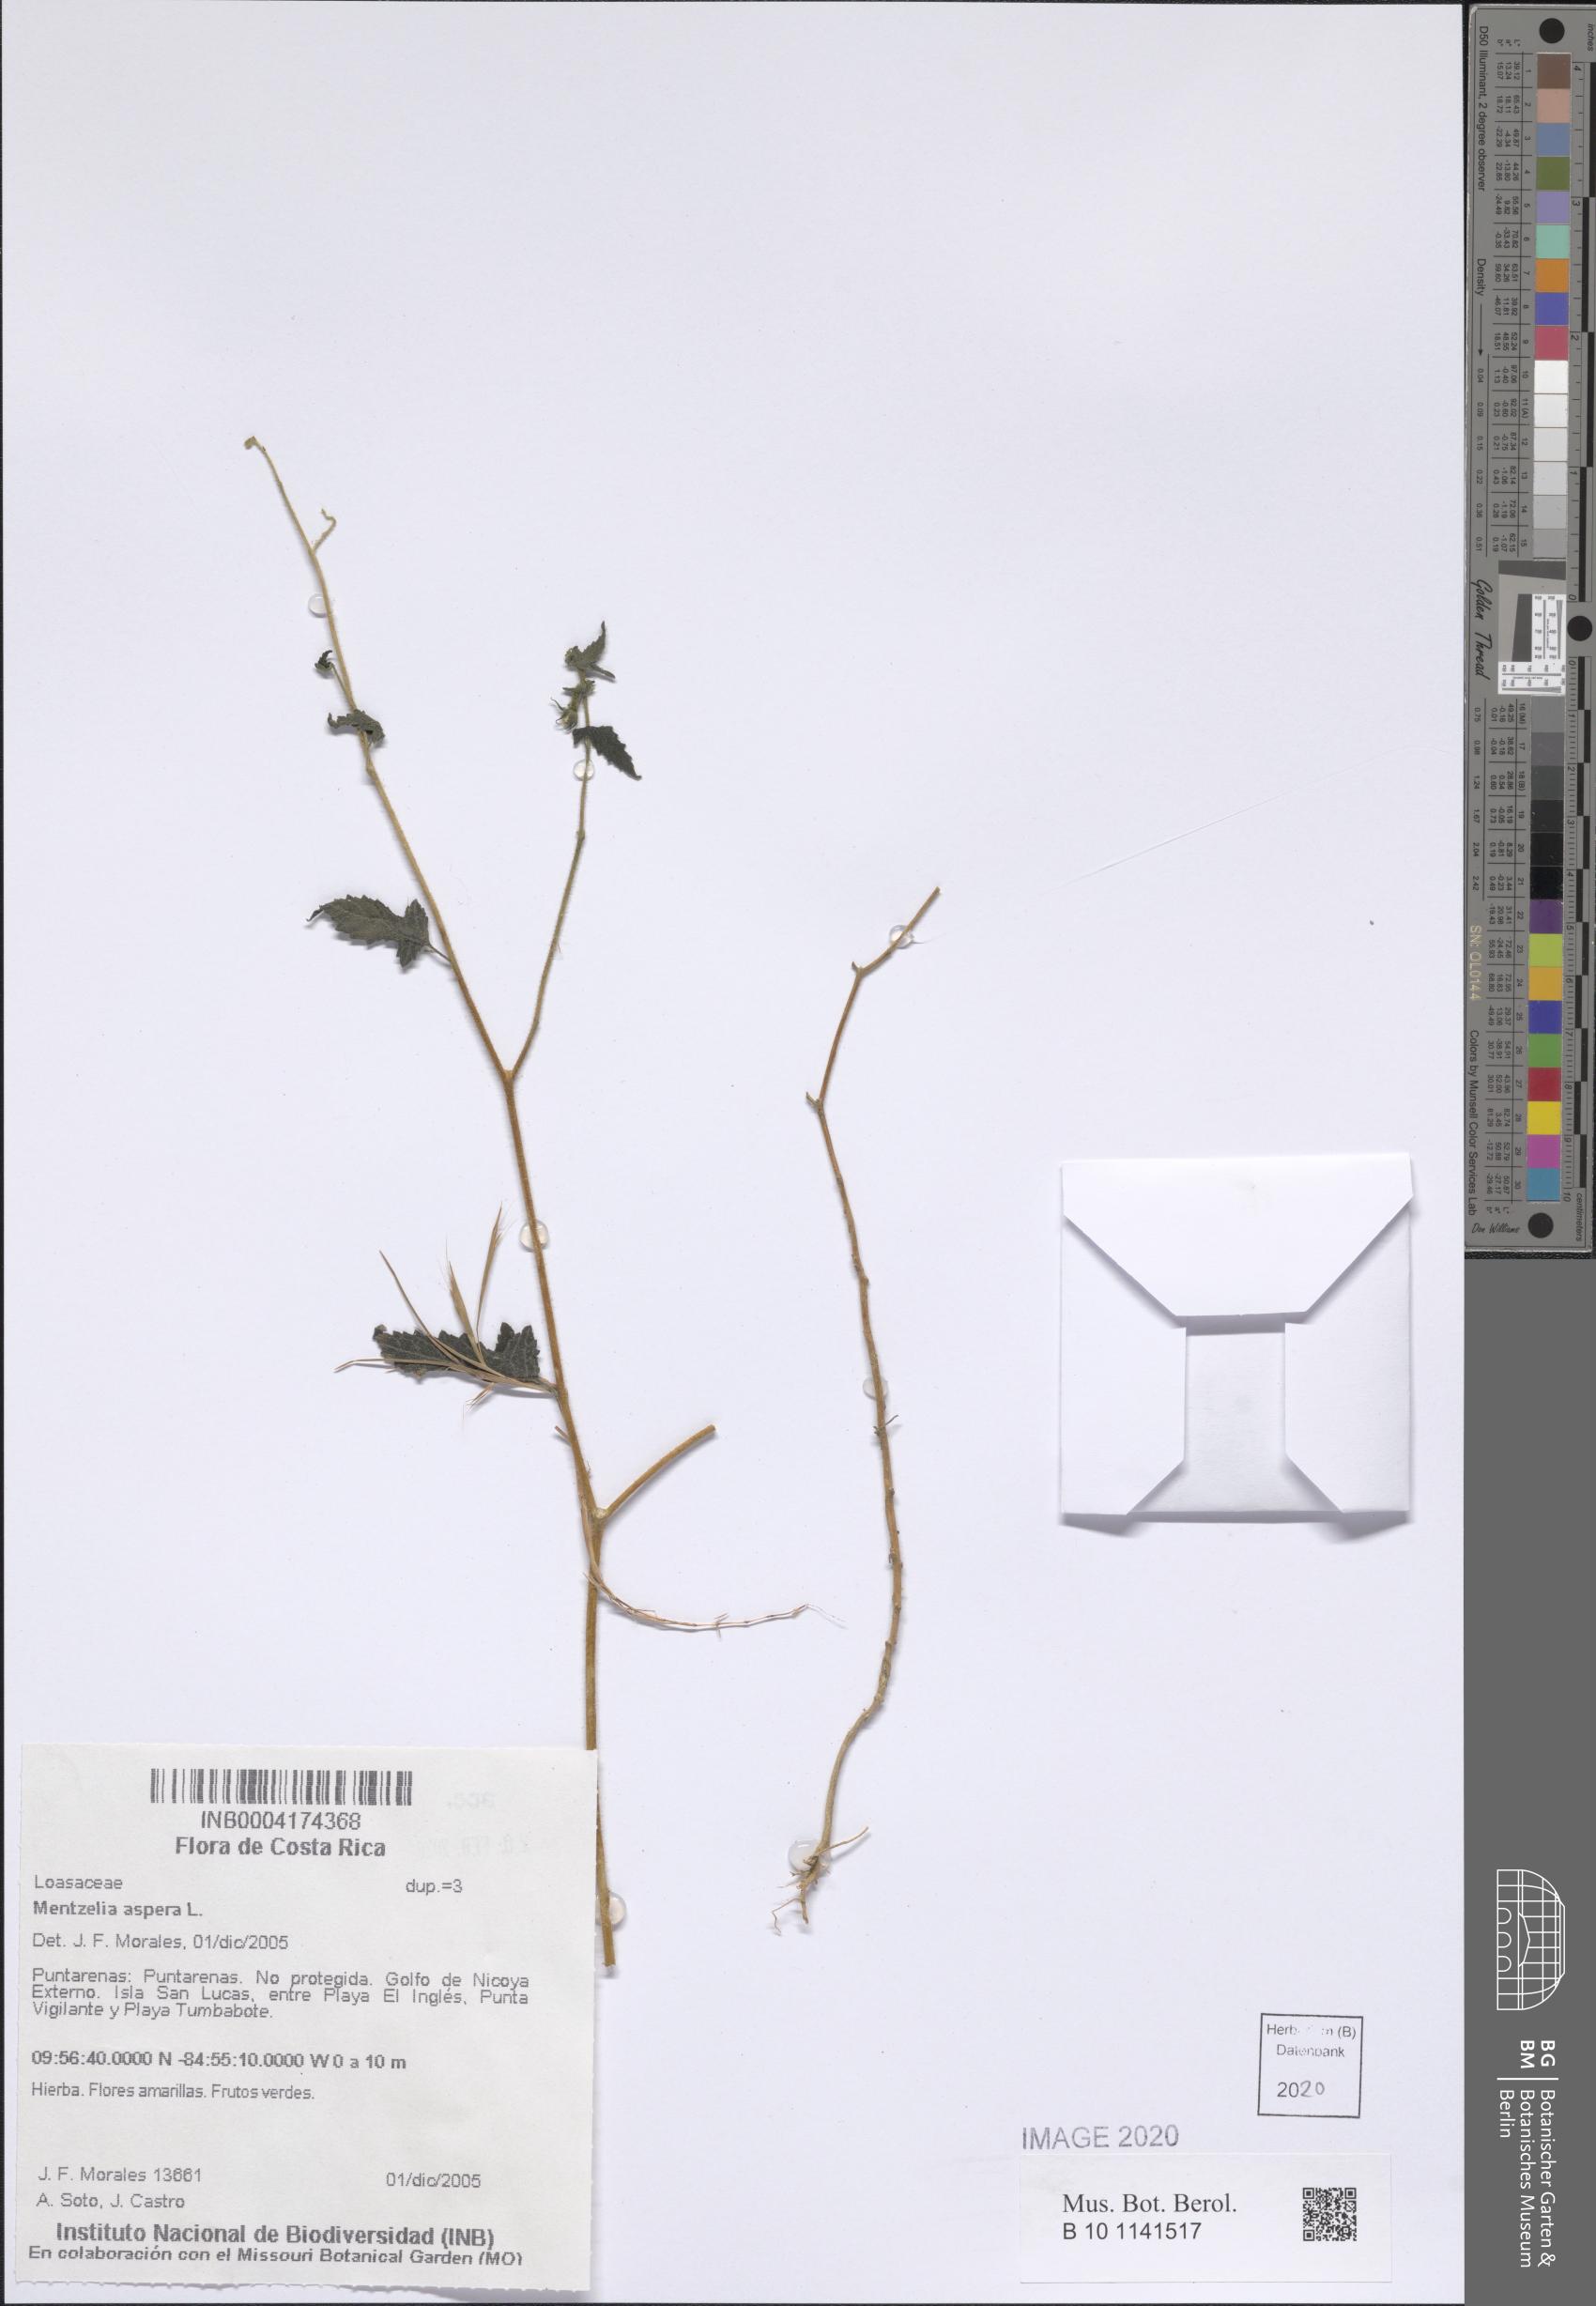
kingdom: Plantae
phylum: Tracheophyta
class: Magnoliopsida
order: Cornales
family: Loasaceae
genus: Mentzelia
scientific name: Mentzelia aspera
